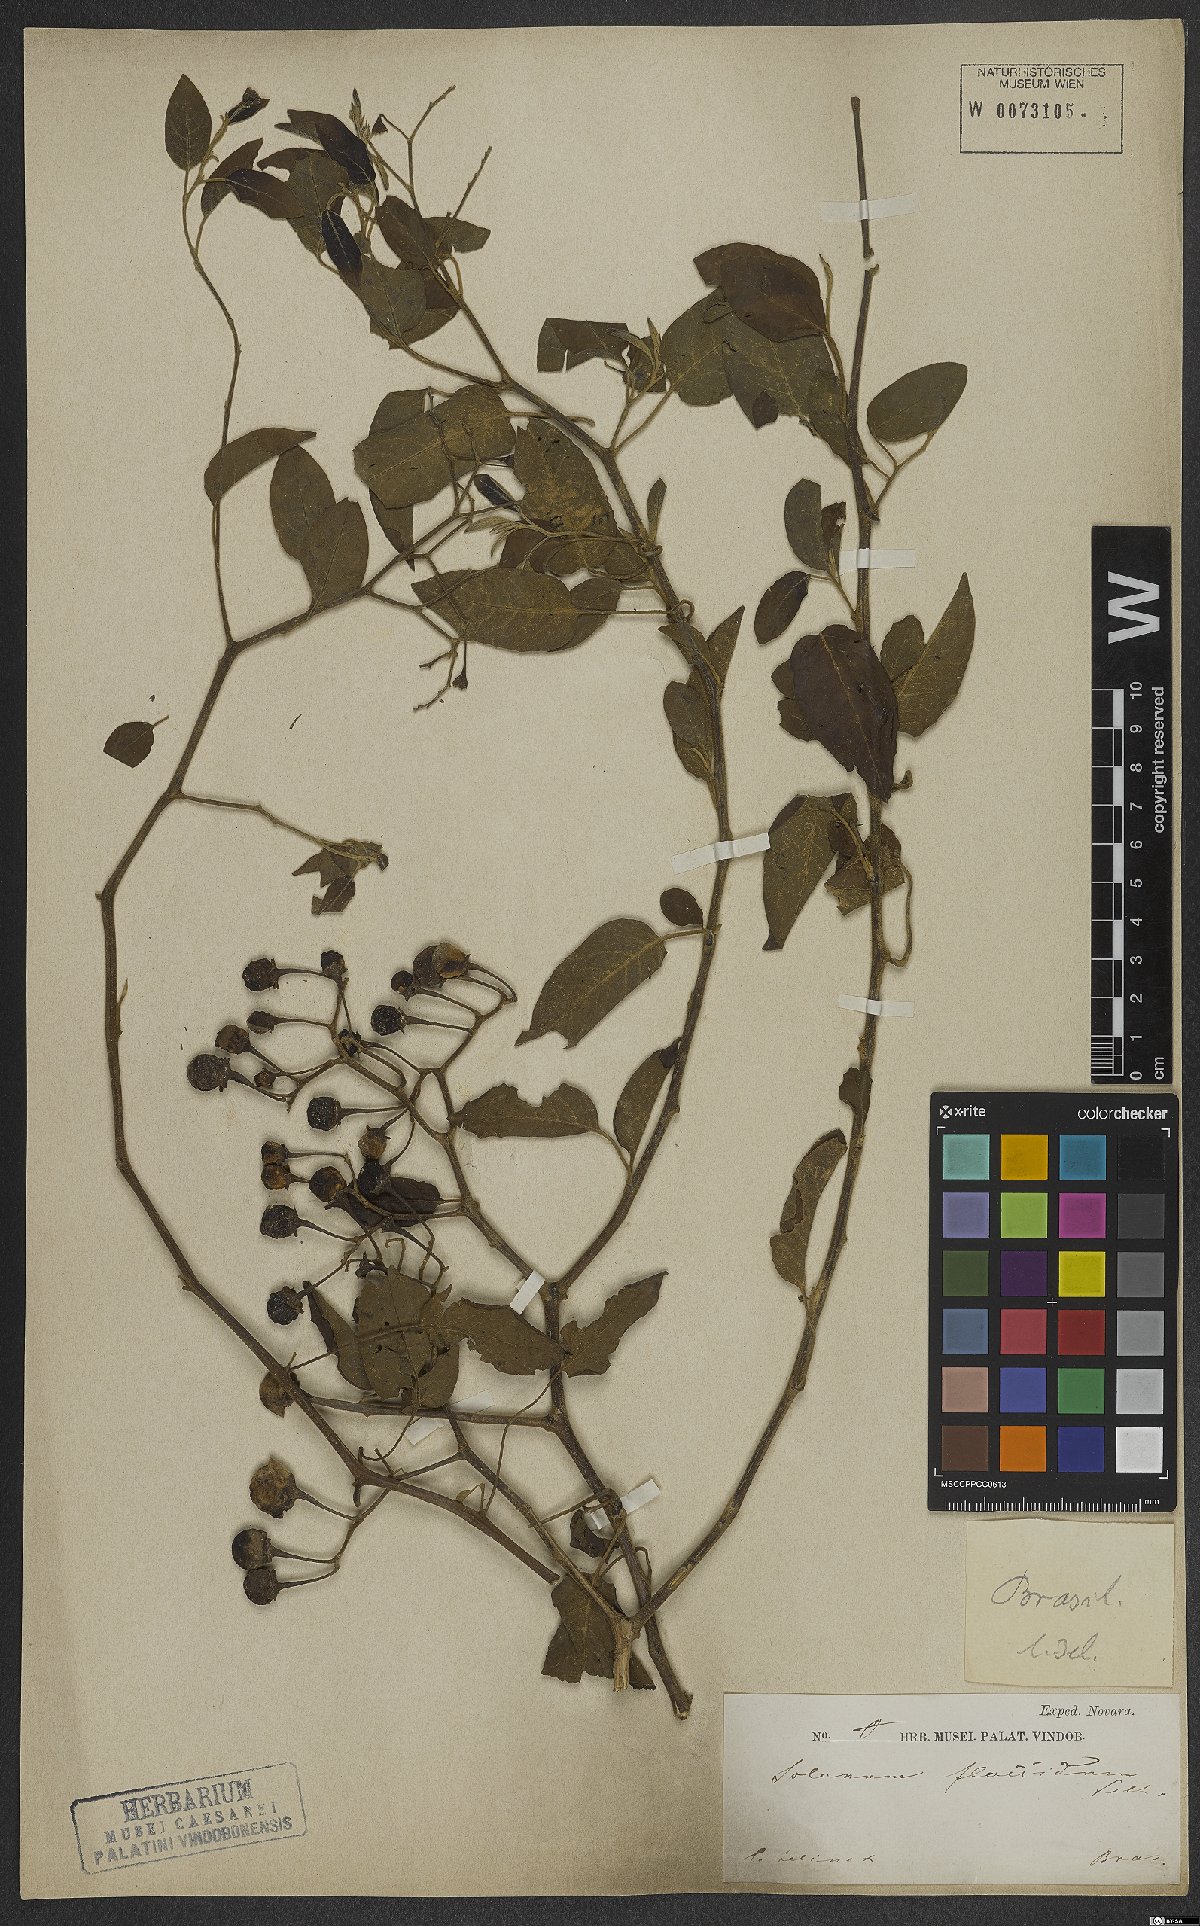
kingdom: Plantae
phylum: Tracheophyta
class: Magnoliopsida
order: Solanales
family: Solanaceae
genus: Solanum
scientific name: Solanum flaccidum
